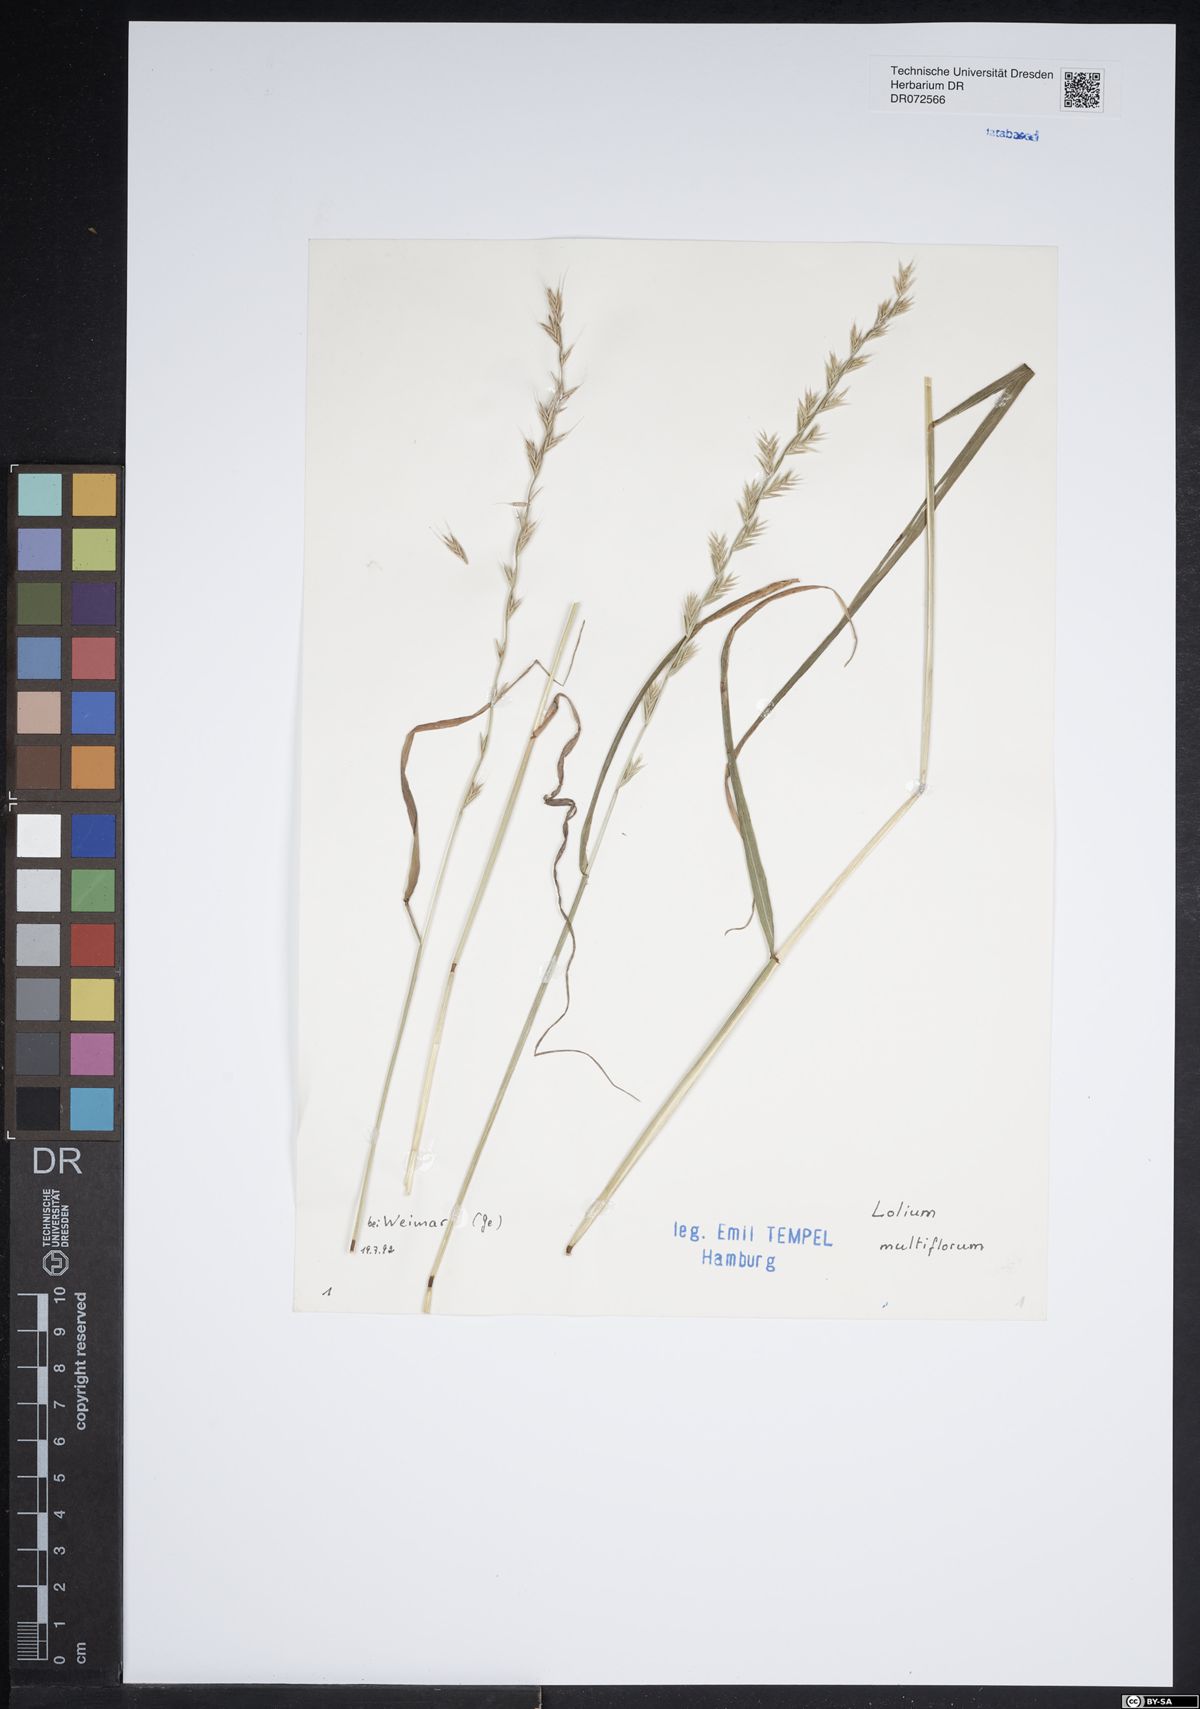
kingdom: Plantae
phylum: Tracheophyta
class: Liliopsida
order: Poales
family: Poaceae
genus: Lolium
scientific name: Lolium multiflorum
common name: Annual ryegrass
